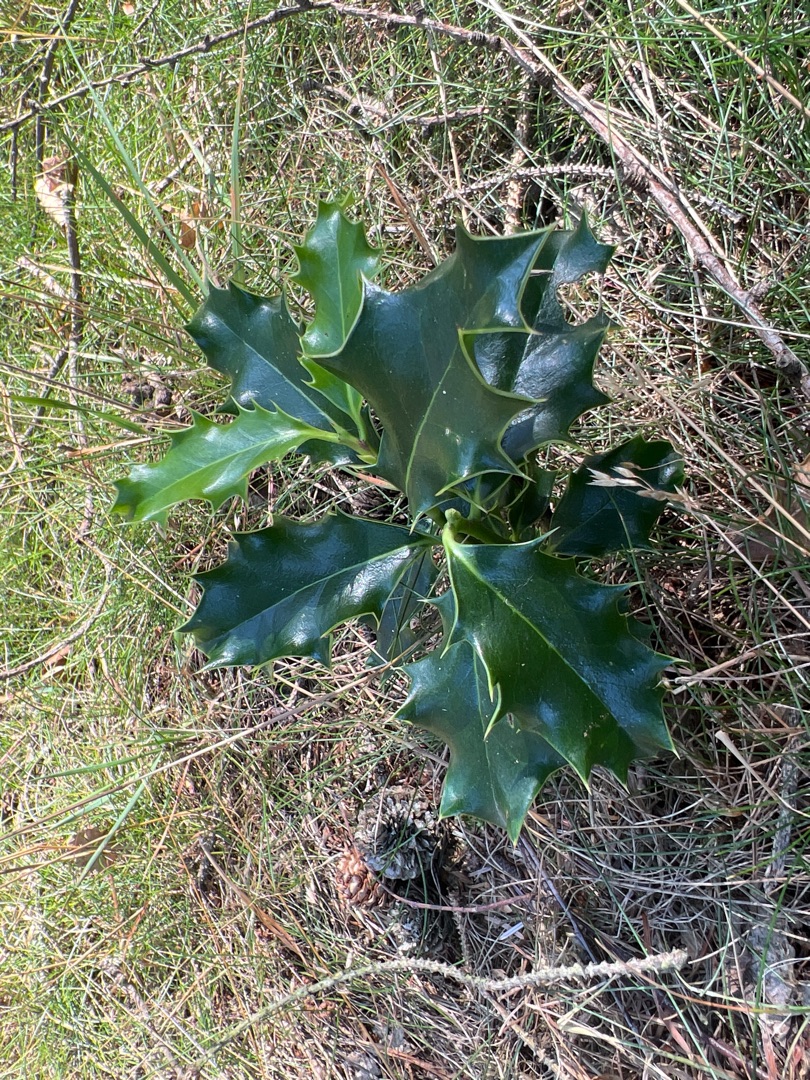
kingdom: Plantae
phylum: Tracheophyta
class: Magnoliopsida
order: Aquifoliales
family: Aquifoliaceae
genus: Ilex
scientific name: Ilex aquifolium
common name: Kristtorn
